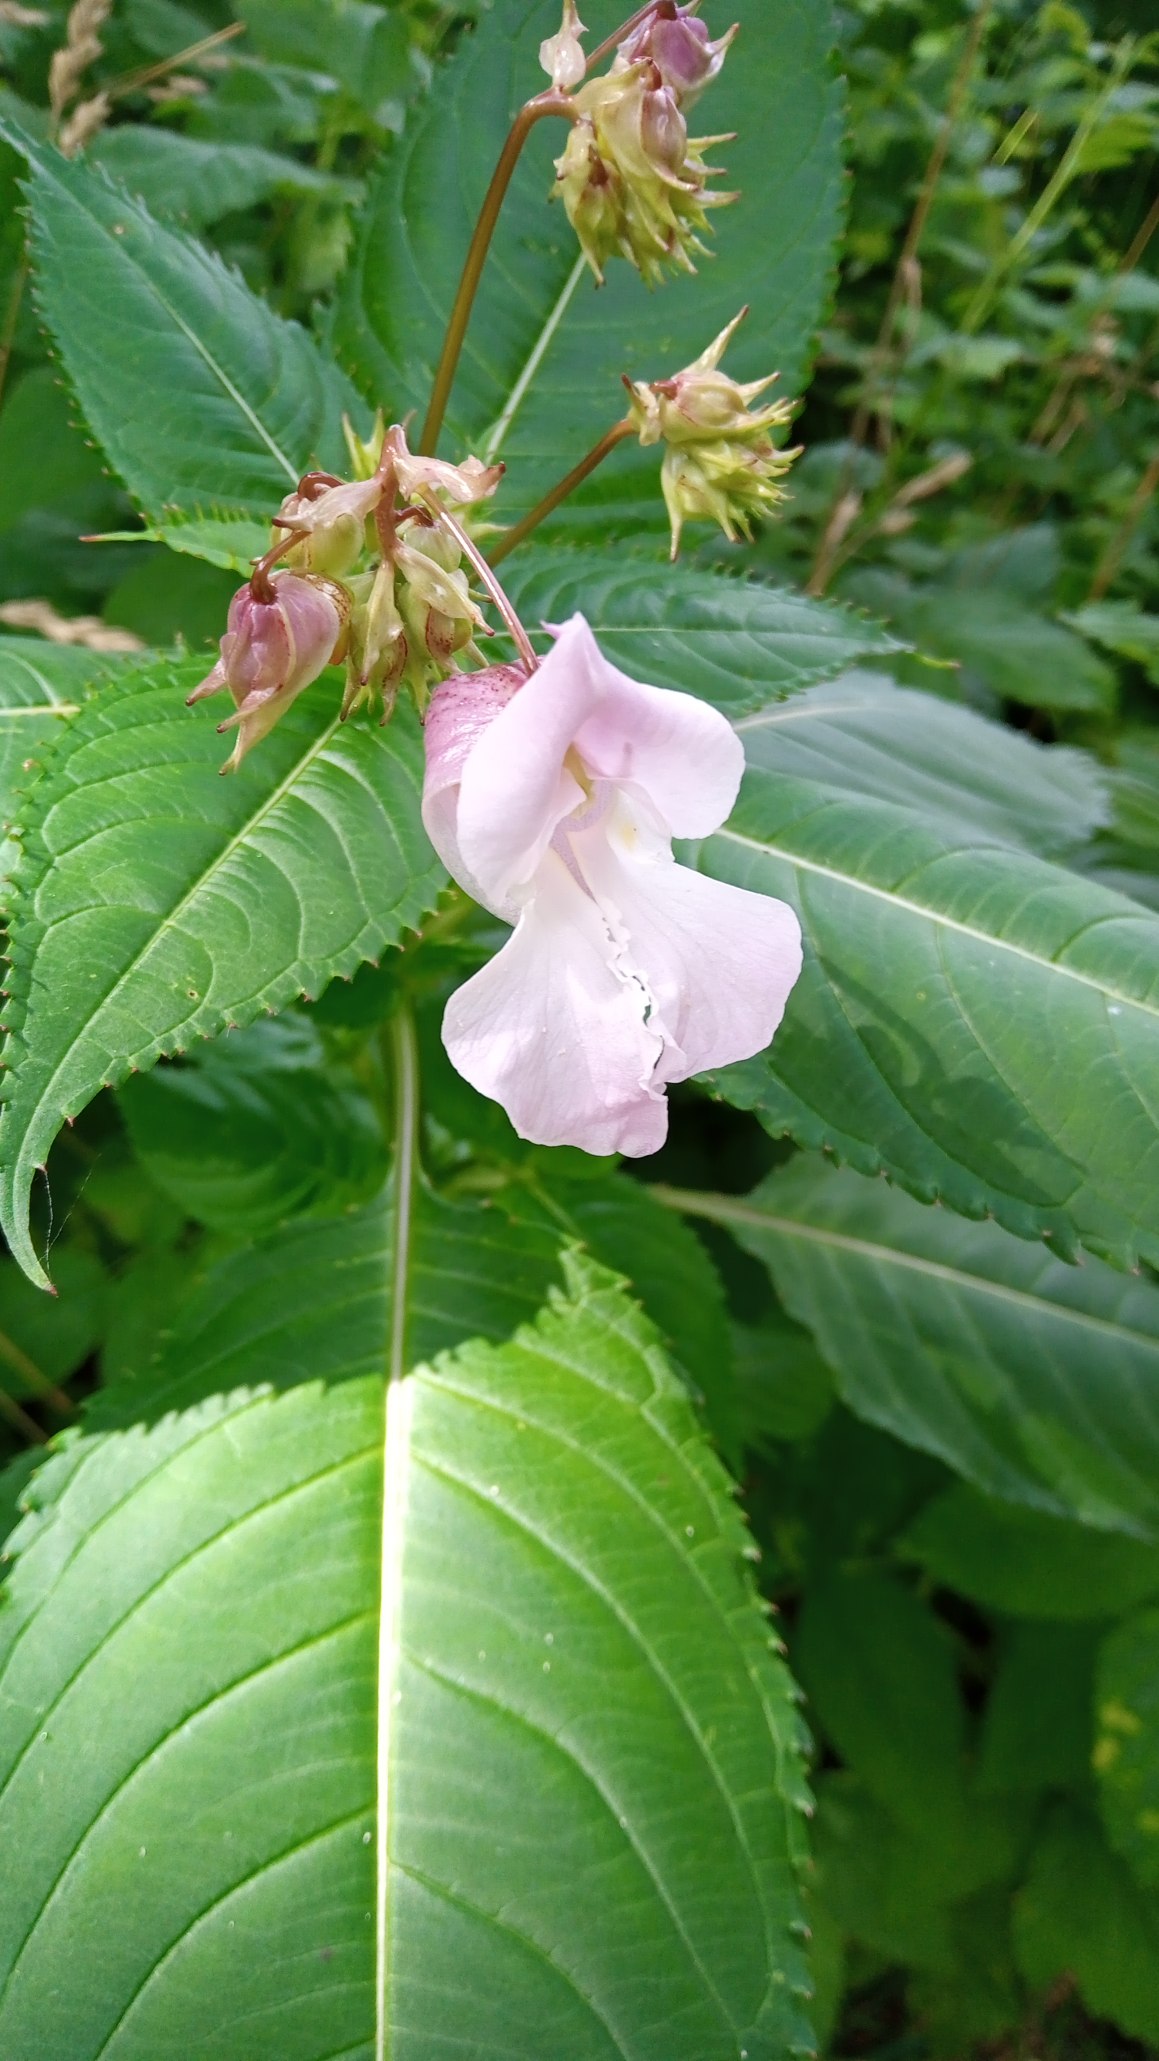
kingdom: Plantae
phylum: Tracheophyta
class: Magnoliopsida
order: Ericales
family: Balsaminaceae
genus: Impatiens
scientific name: Impatiens glandulifera
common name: Kæmpe-balsamin
